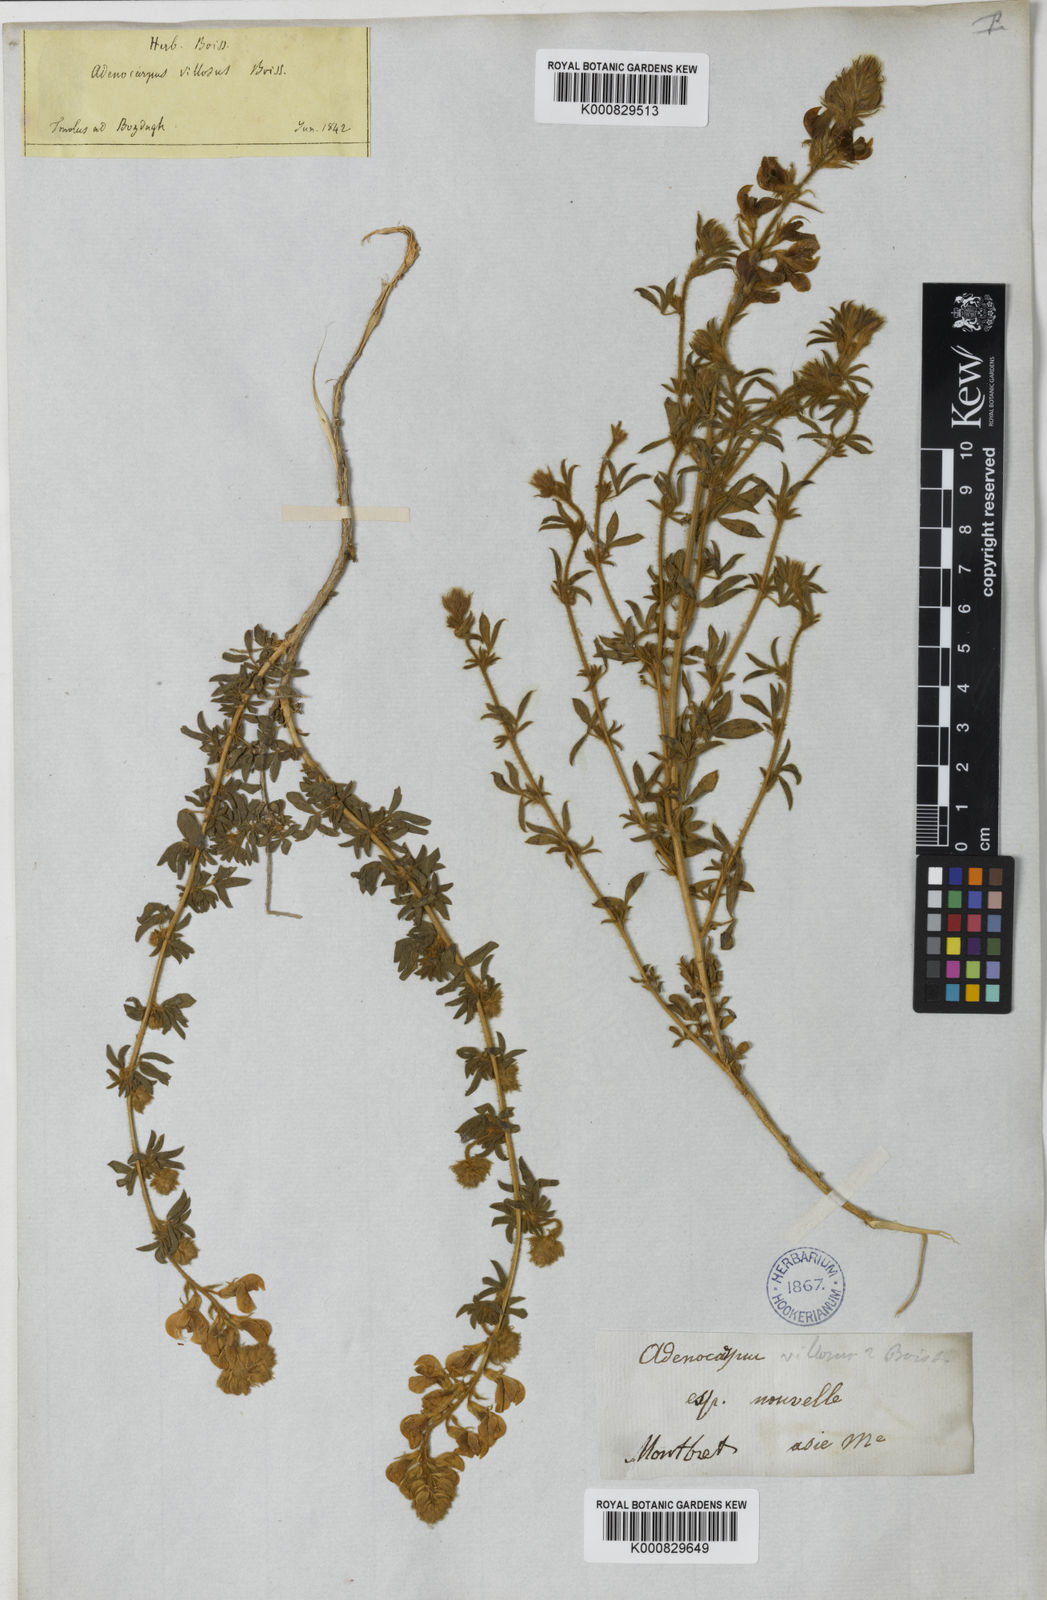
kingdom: Plantae
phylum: Tracheophyta
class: Magnoliopsida
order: Fabales
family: Fabaceae
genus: Adenocarpus
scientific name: Adenocarpus complicatus
